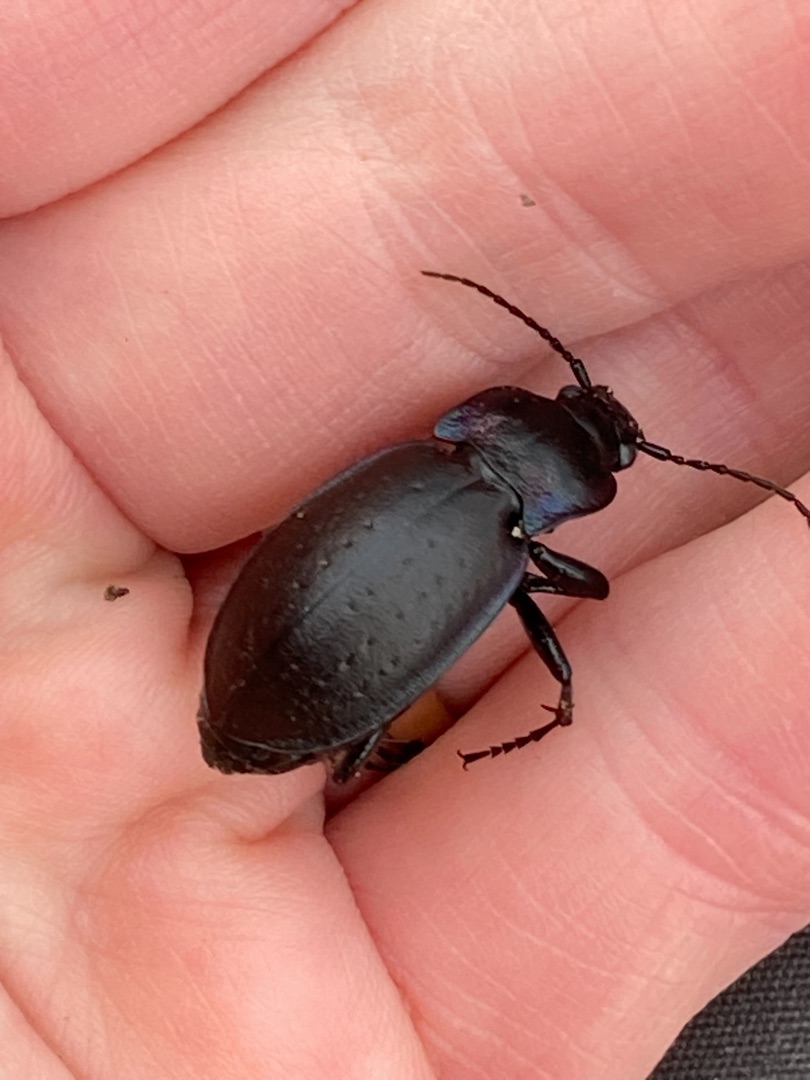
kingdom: Animalia
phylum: Arthropoda
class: Insecta
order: Coleoptera
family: Carabidae
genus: Carabus
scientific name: Carabus nemoralis
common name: Kratløber
